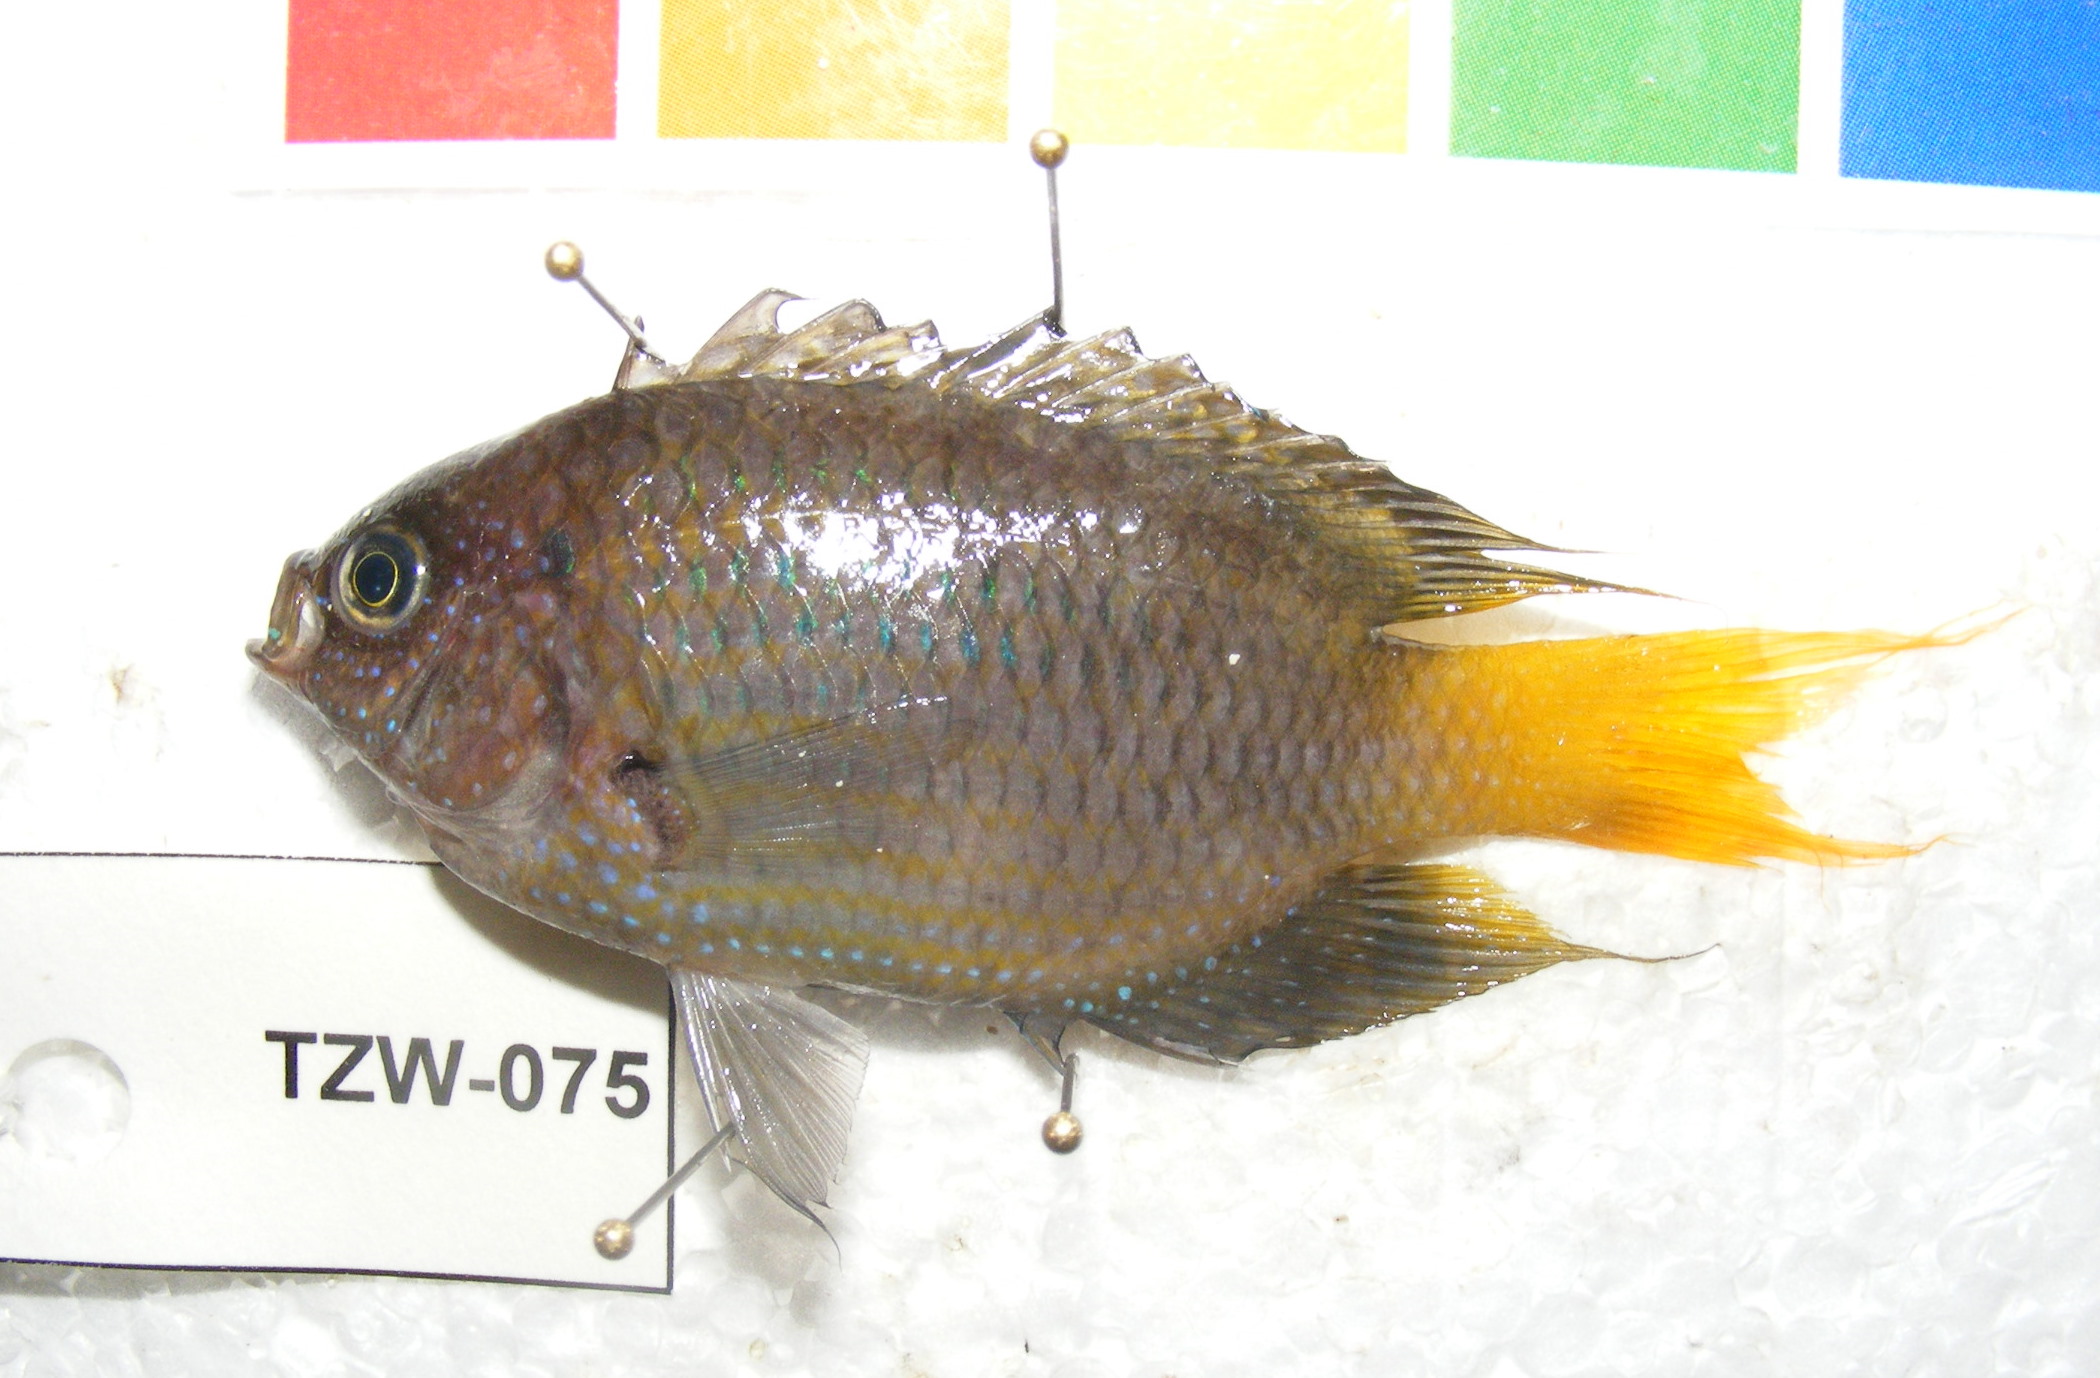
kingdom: Animalia
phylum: Chordata
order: Perciformes
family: Pomacentridae
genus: Neopomacentrus
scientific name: Neopomacentrus
